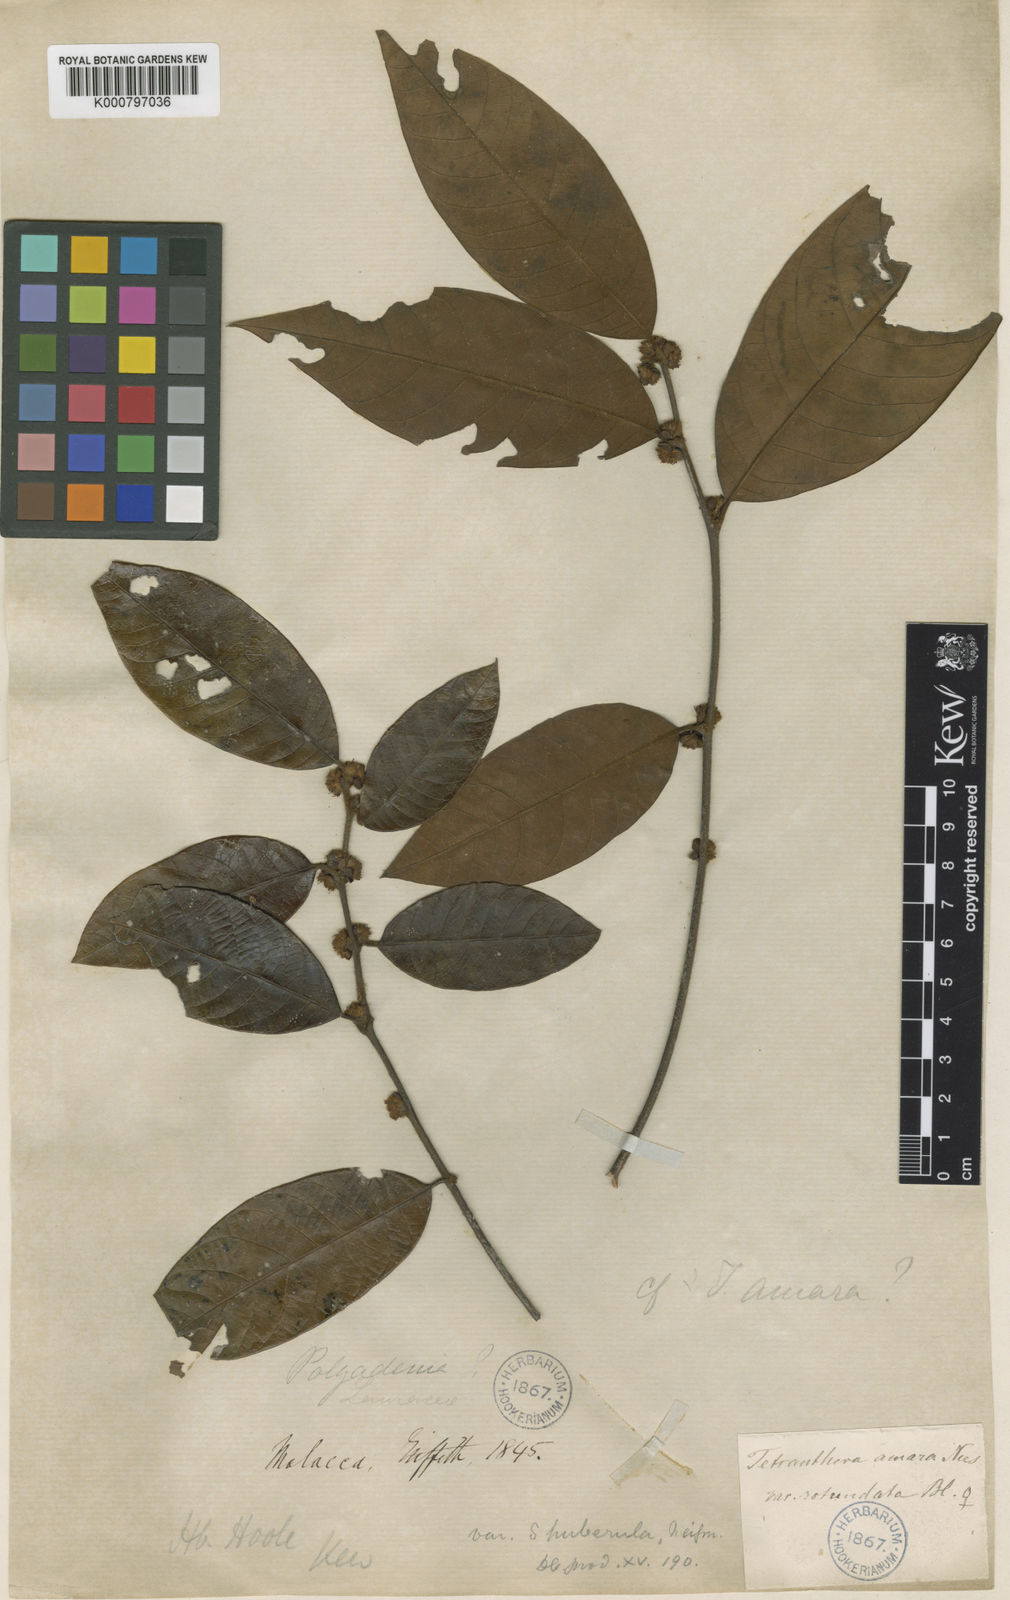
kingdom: Plantae
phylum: Tracheophyta
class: Magnoliopsida
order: Laurales
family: Lauraceae
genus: Litsea
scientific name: Litsea umbellata
